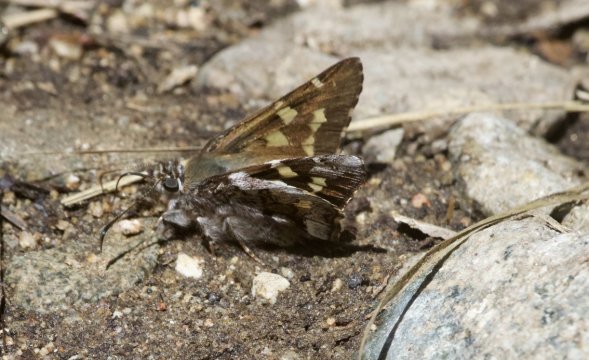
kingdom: Animalia
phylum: Arthropoda
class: Insecta
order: Lepidoptera
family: Hesperiidae
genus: Zestusa
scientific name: Zestusa dorus
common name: Short-tailed Skipper
